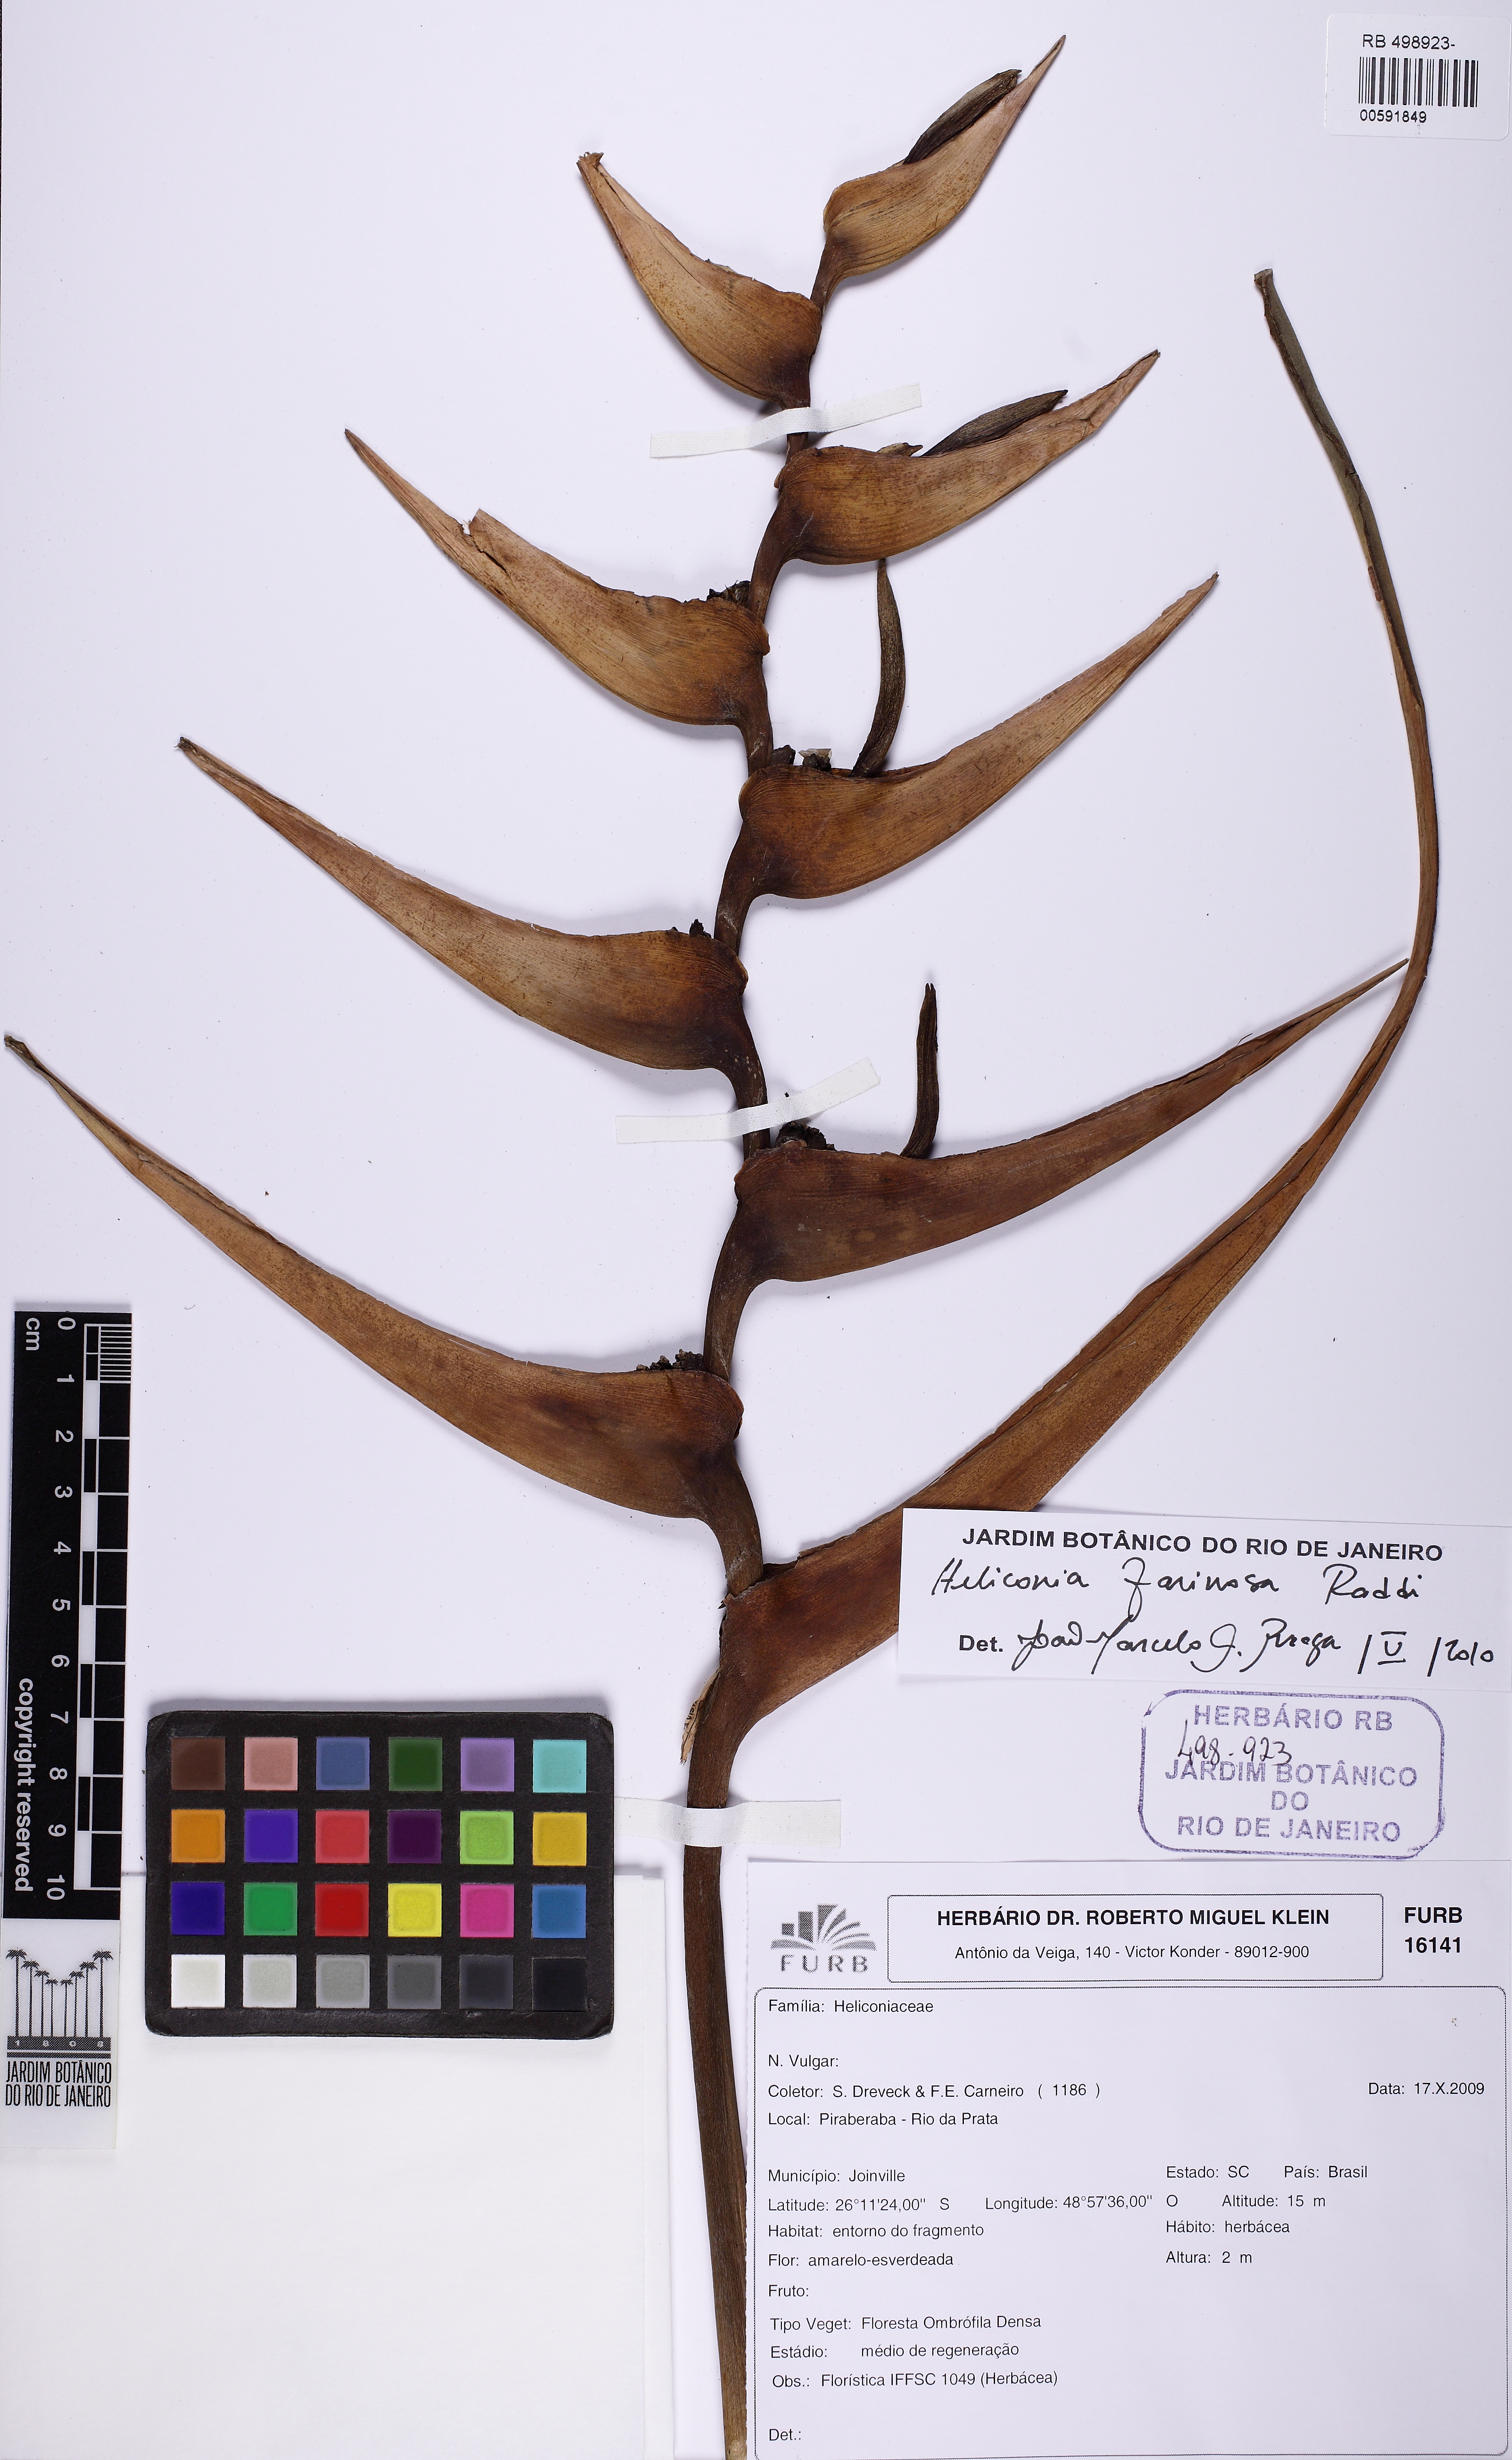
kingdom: Plantae
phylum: Tracheophyta
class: Liliopsida
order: Zingiberales
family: Heliconiaceae
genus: Heliconia
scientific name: Heliconia farinosa
